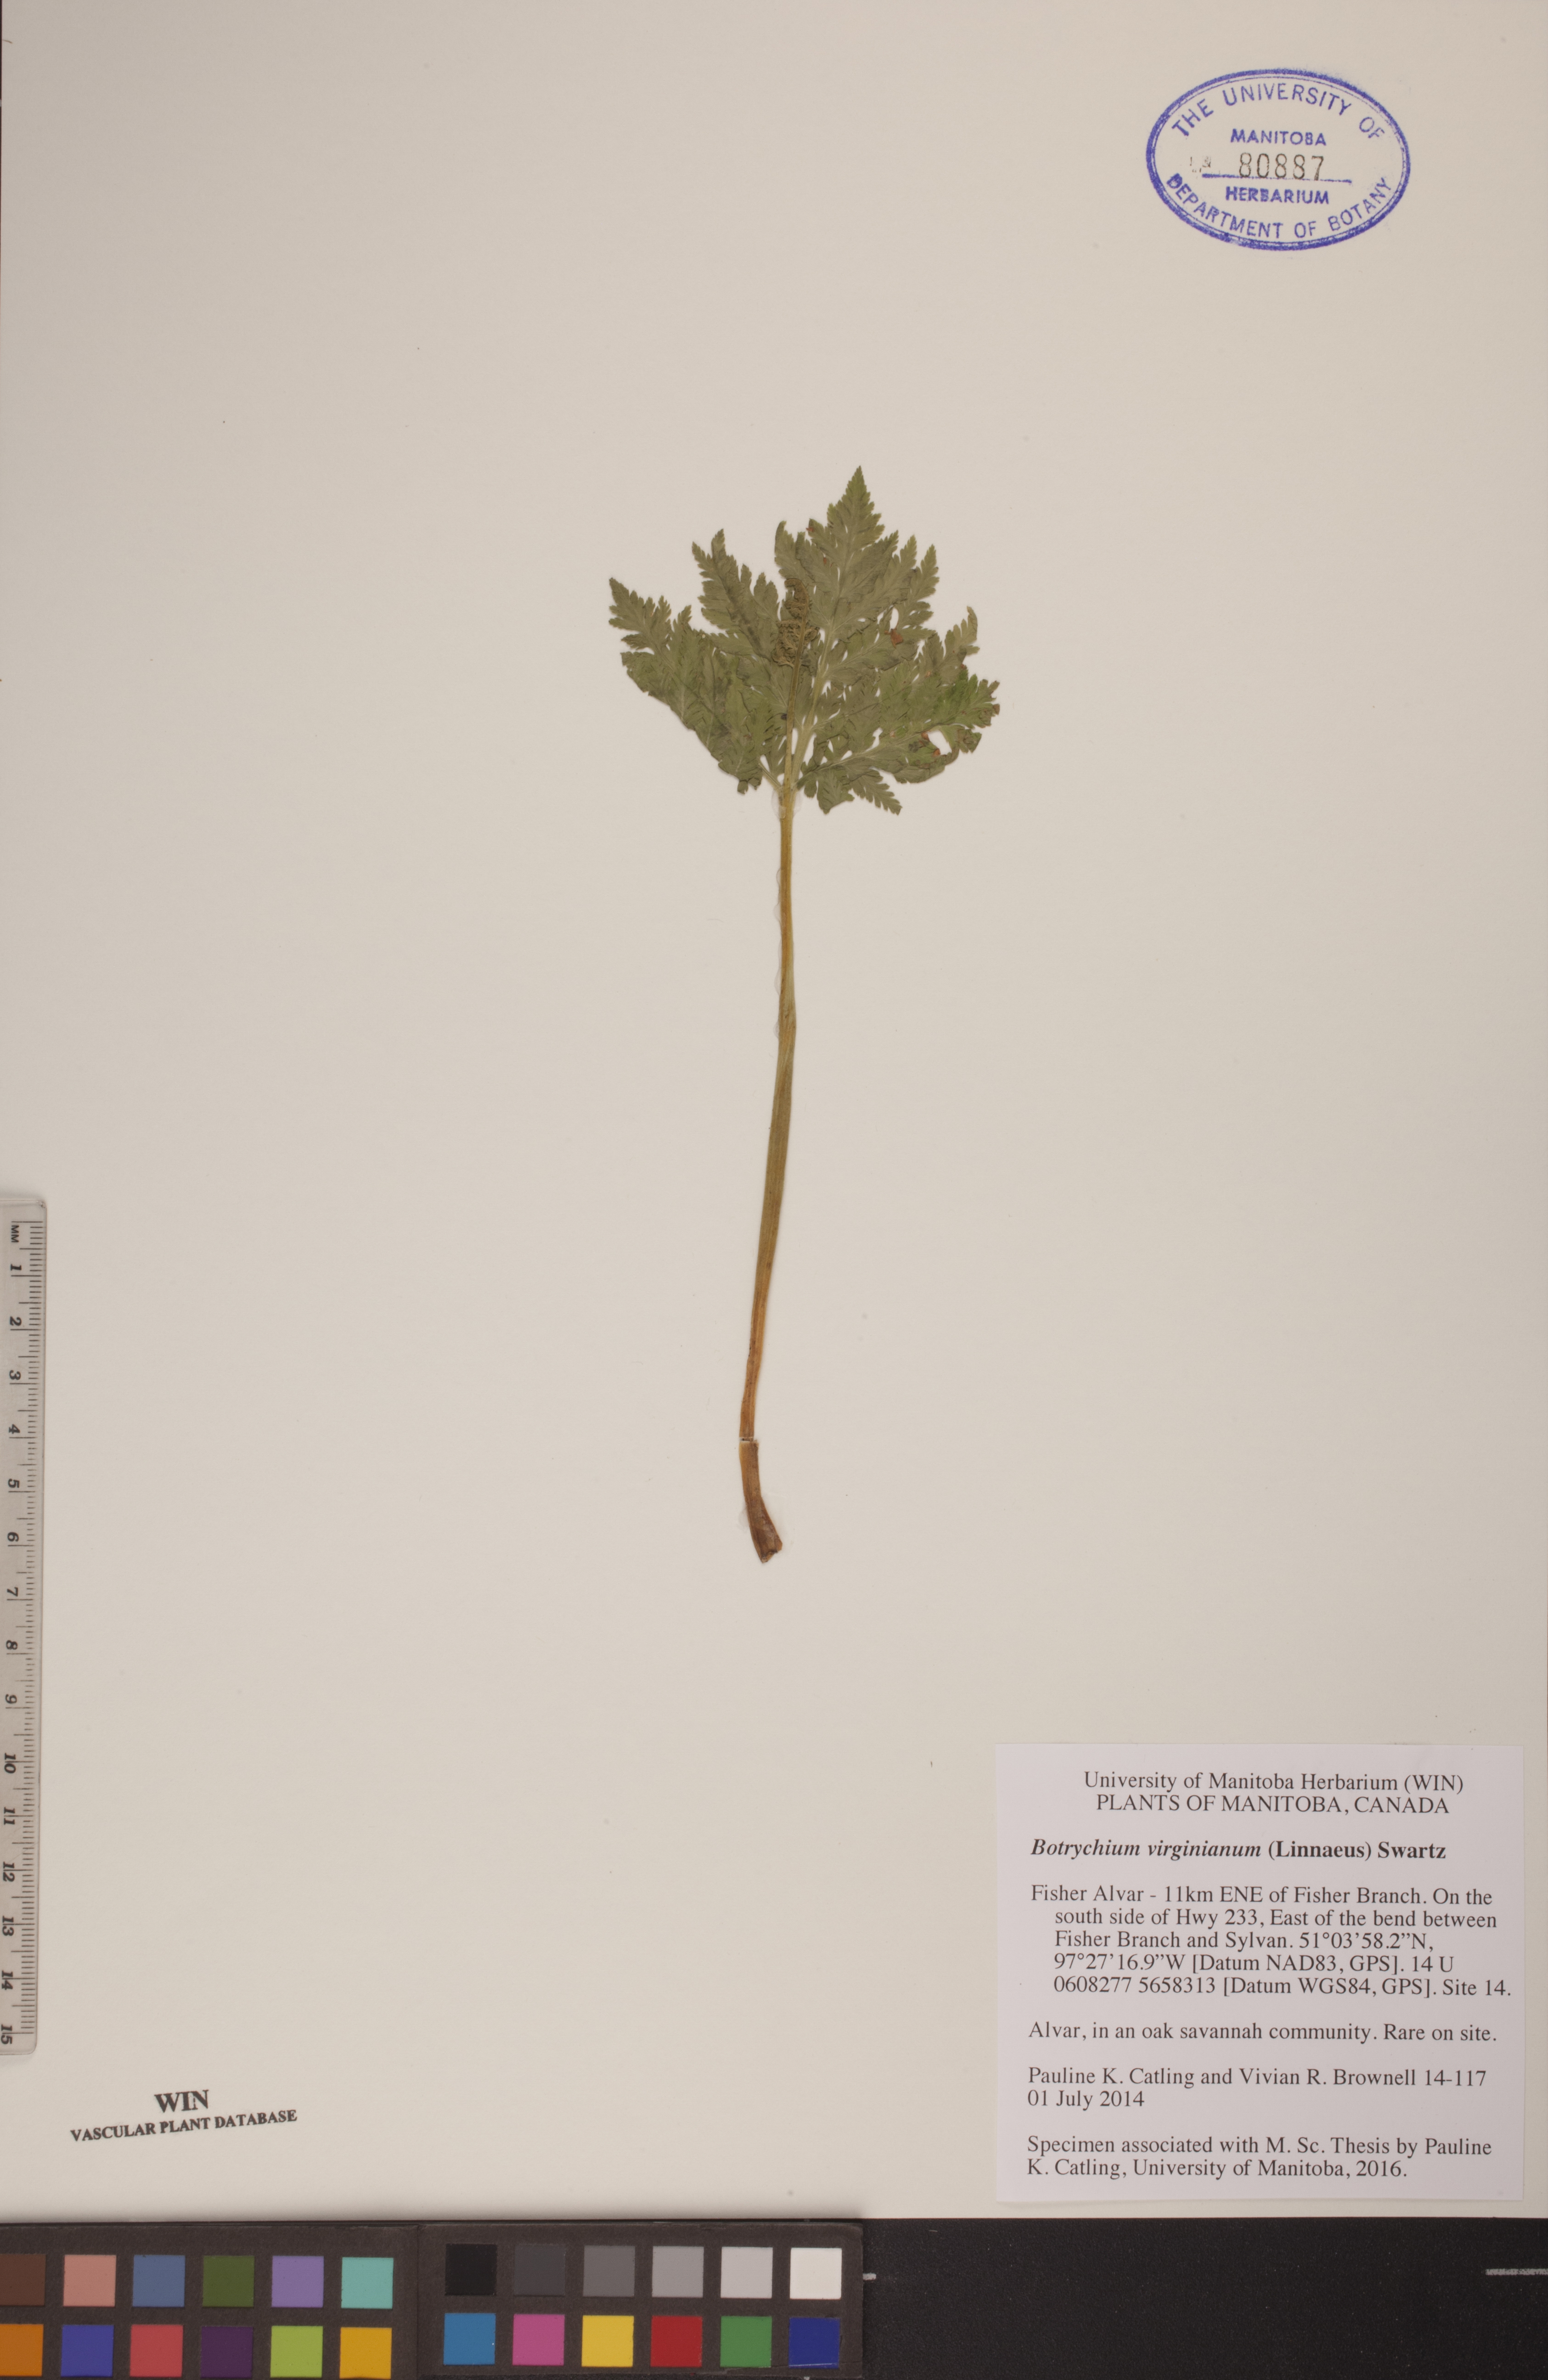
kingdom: Plantae
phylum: Tracheophyta
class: Polypodiopsida
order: Ophioglossales
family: Ophioglossaceae
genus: Botrypus
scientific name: Botrypus virginianus
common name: Common grapefern
